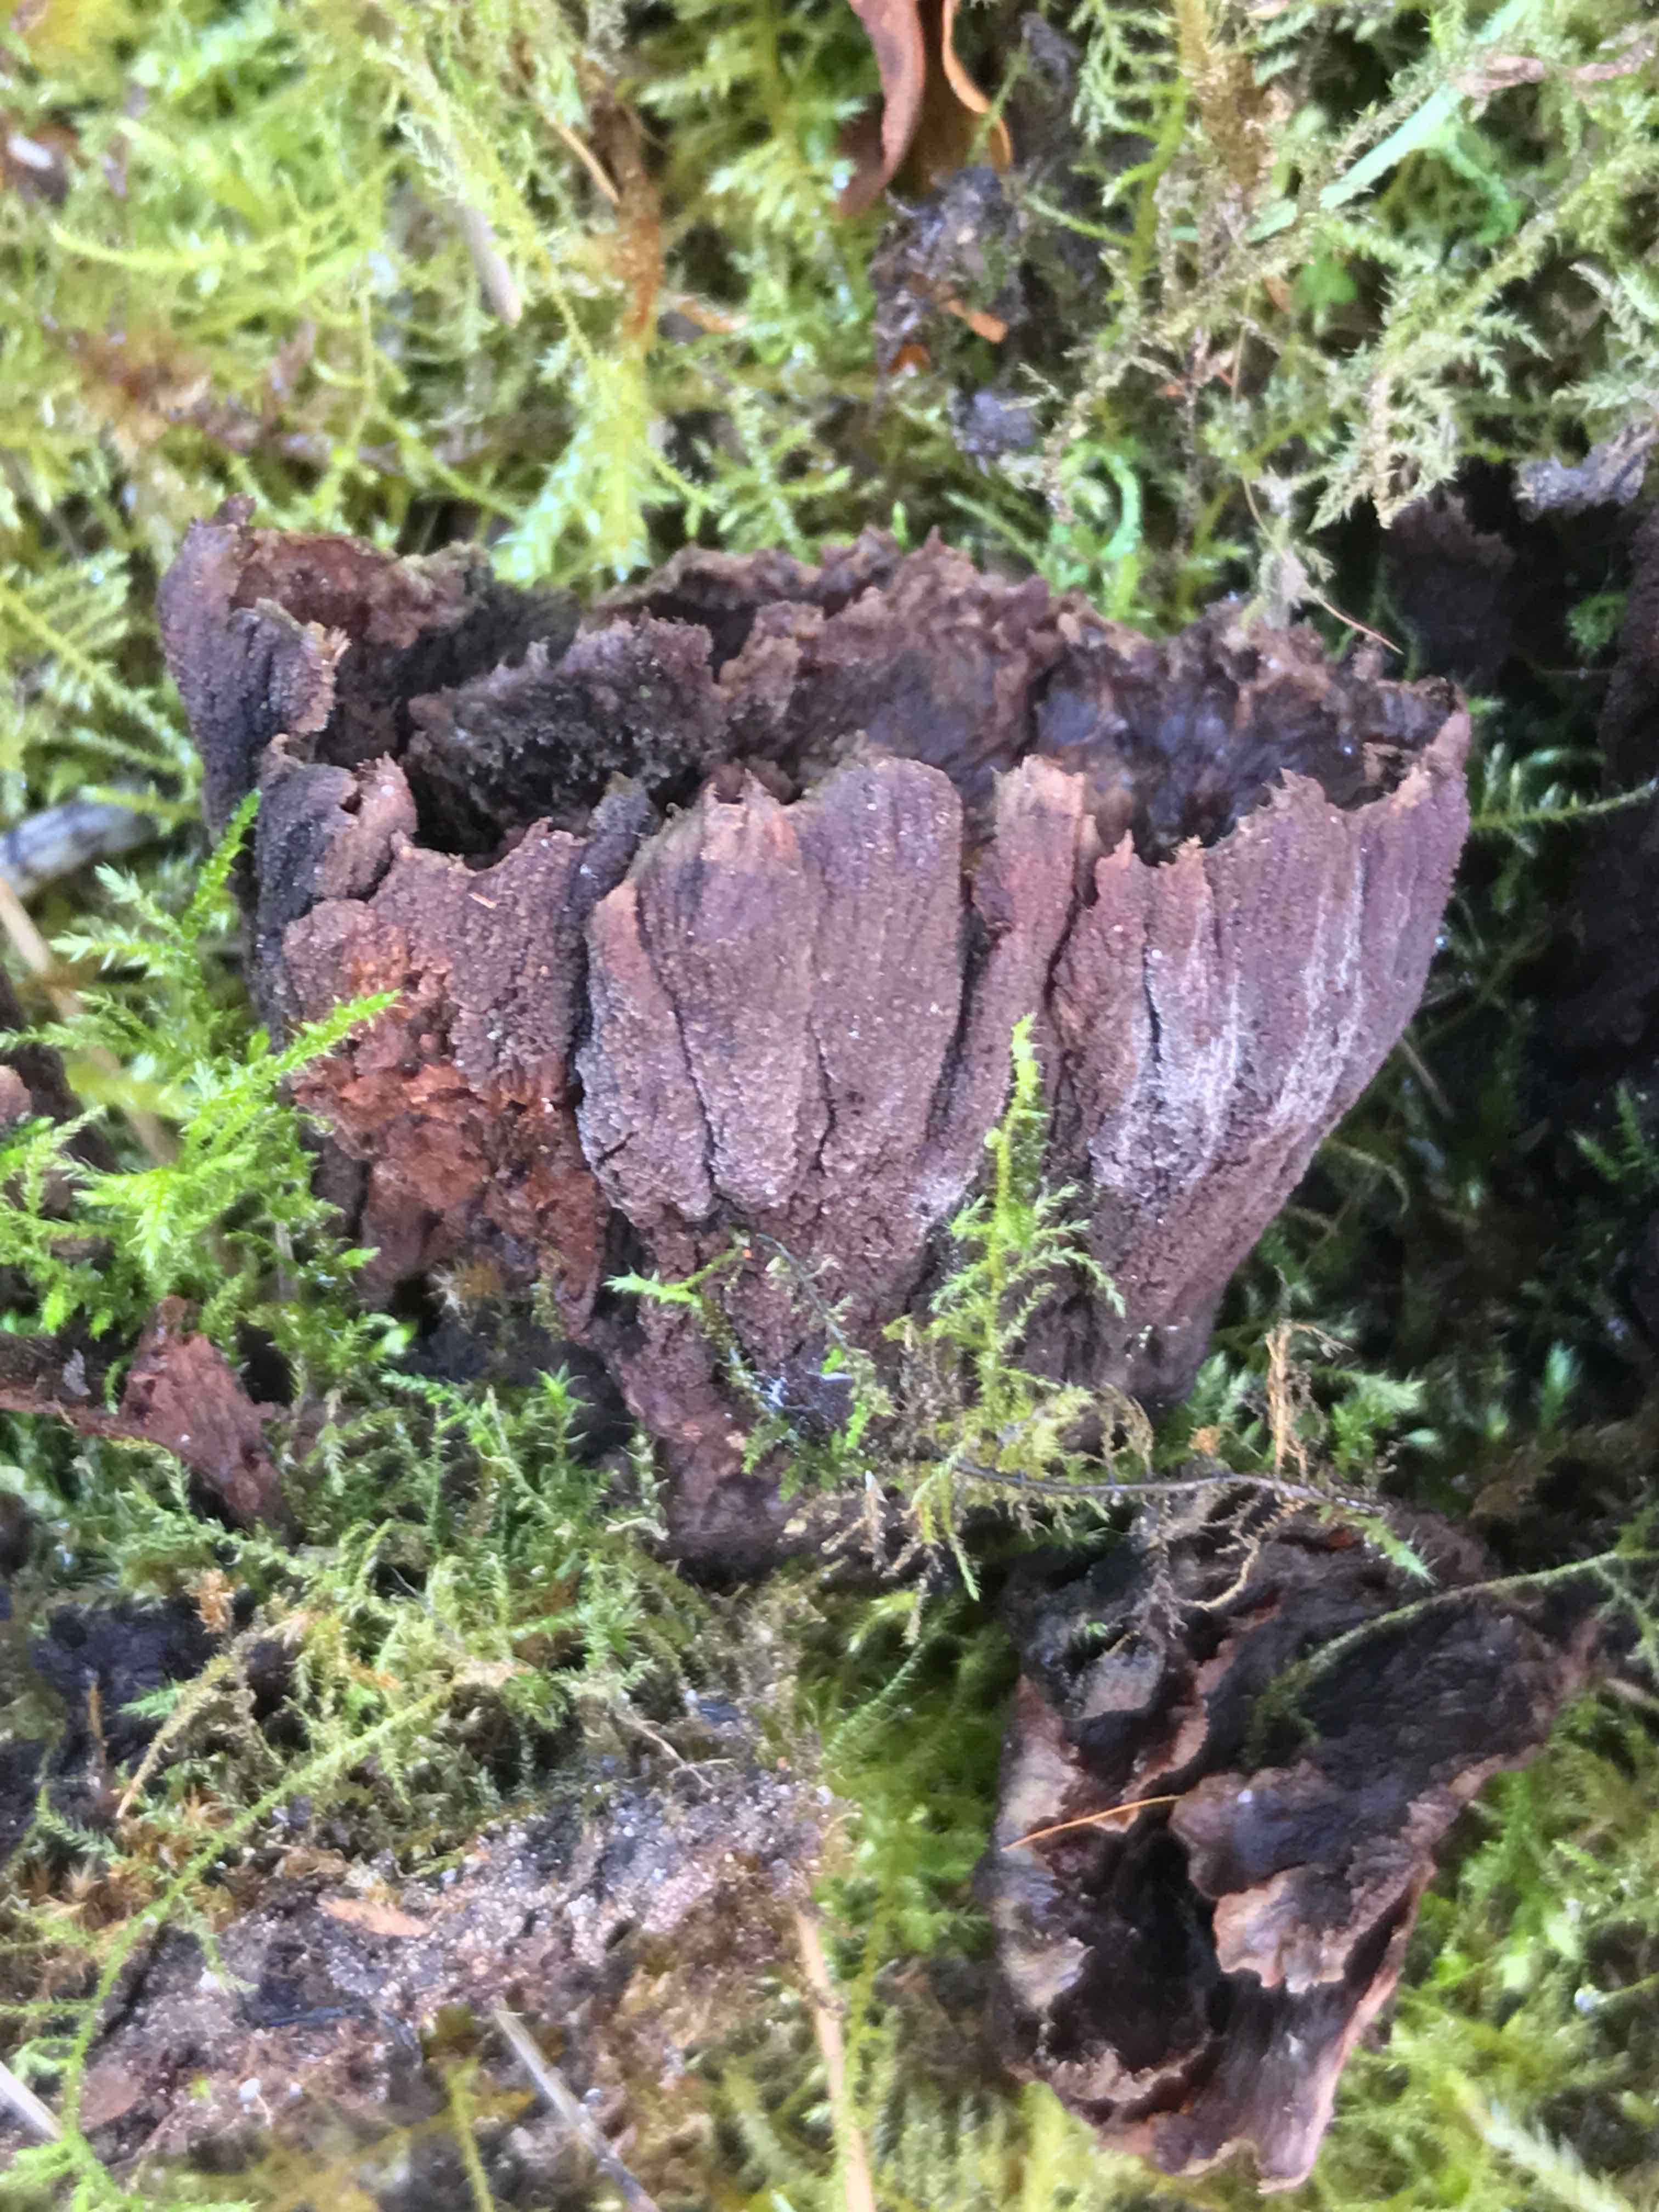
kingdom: Fungi
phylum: Basidiomycota
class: Agaricomycetes
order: Thelephorales
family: Thelephoraceae
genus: Thelephora
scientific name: Thelephora terrestris
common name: fliget frynsesvamp
